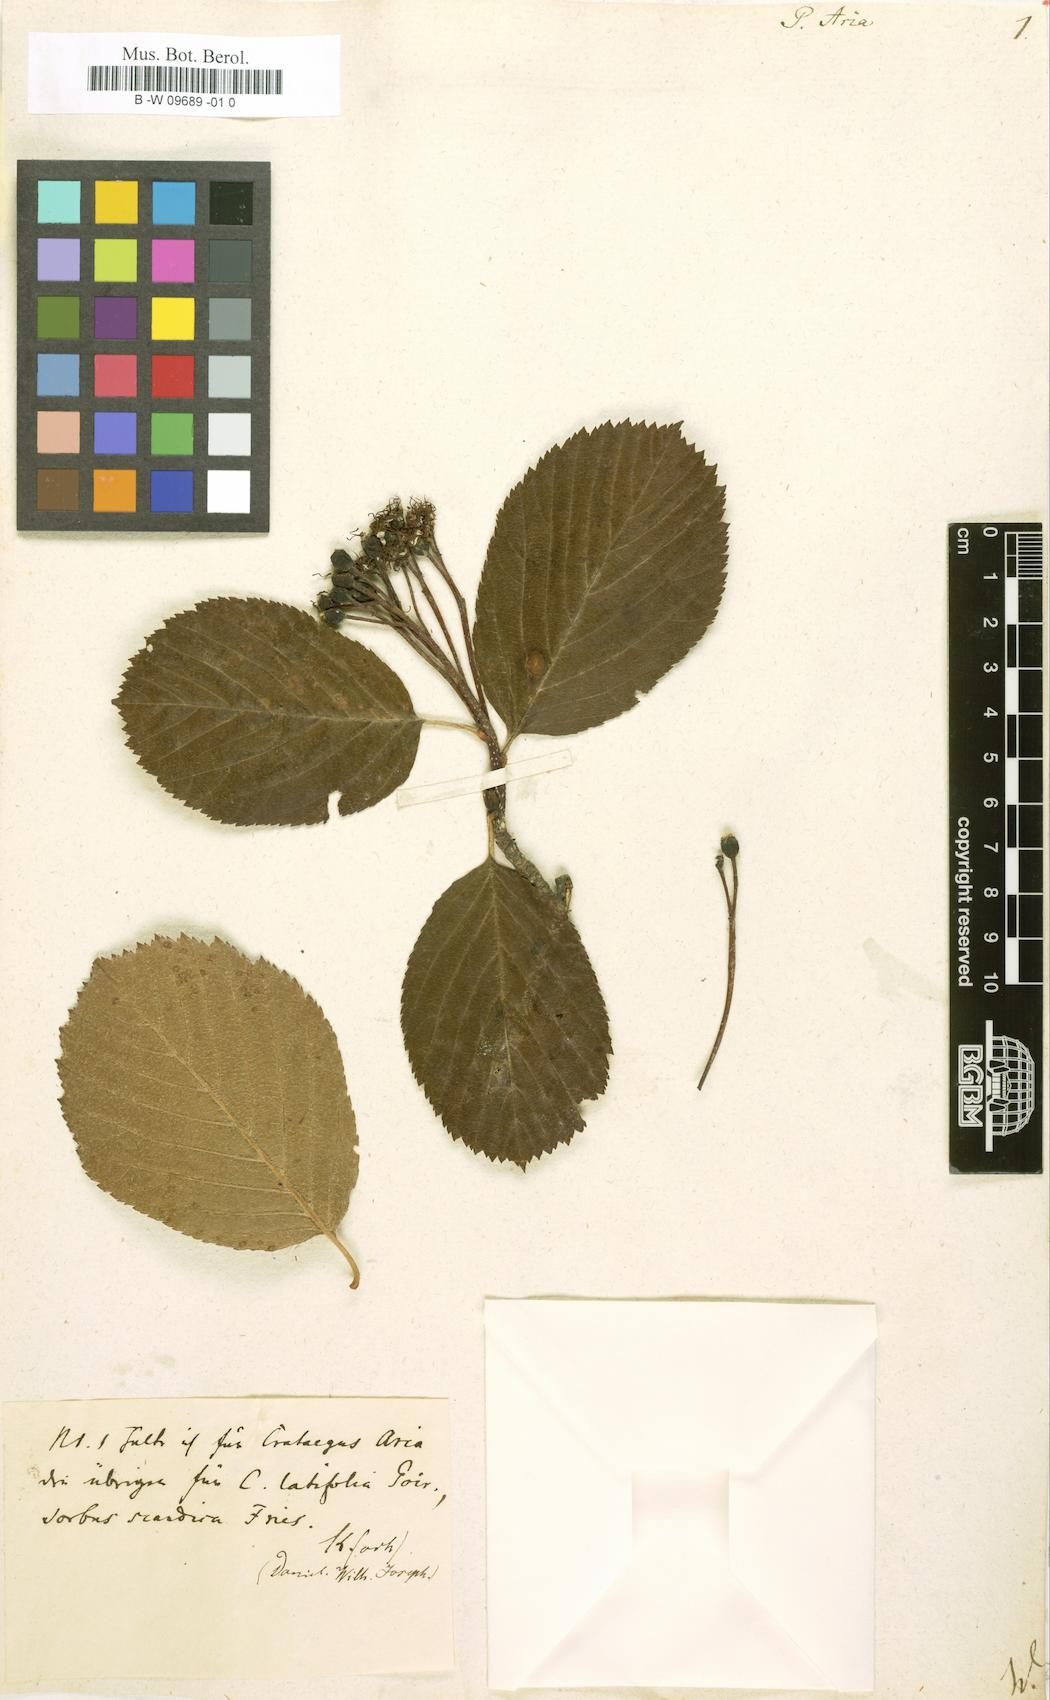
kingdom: Plantae
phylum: Tracheophyta
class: Magnoliopsida
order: Rosales
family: Rosaceae
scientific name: Rosaceae
